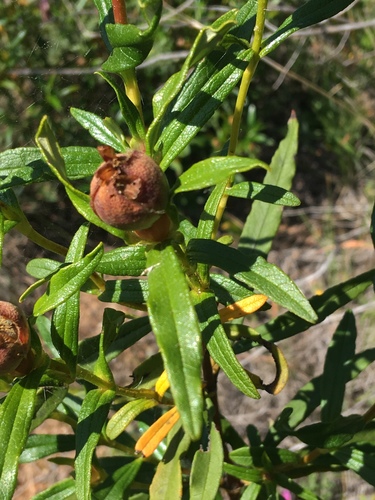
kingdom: Plantae
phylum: Tracheophyta
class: Magnoliopsida
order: Malvales
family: Cistaceae
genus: Cistus
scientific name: Cistus ladanifer
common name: Common gum cistus
